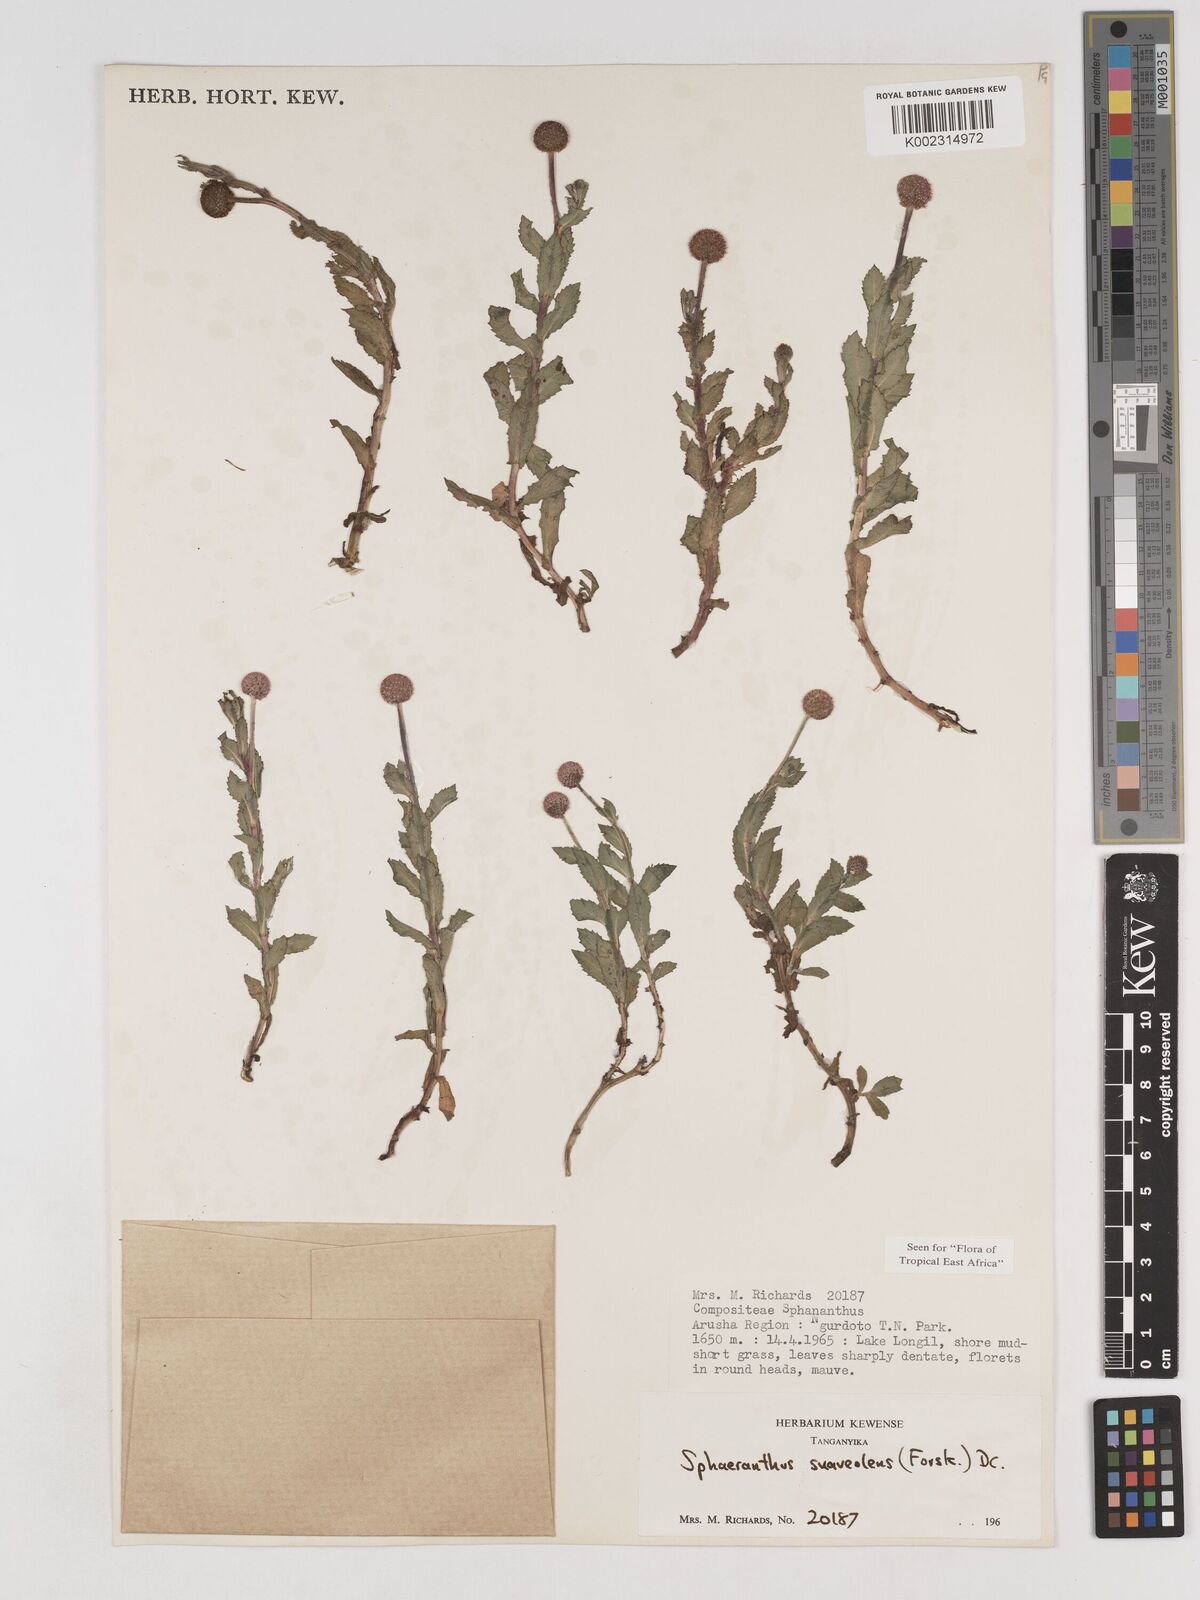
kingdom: Plantae
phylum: Tracheophyta
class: Magnoliopsida
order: Asterales
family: Asteraceae
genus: Sphaeranthus
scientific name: Sphaeranthus suaveolens
